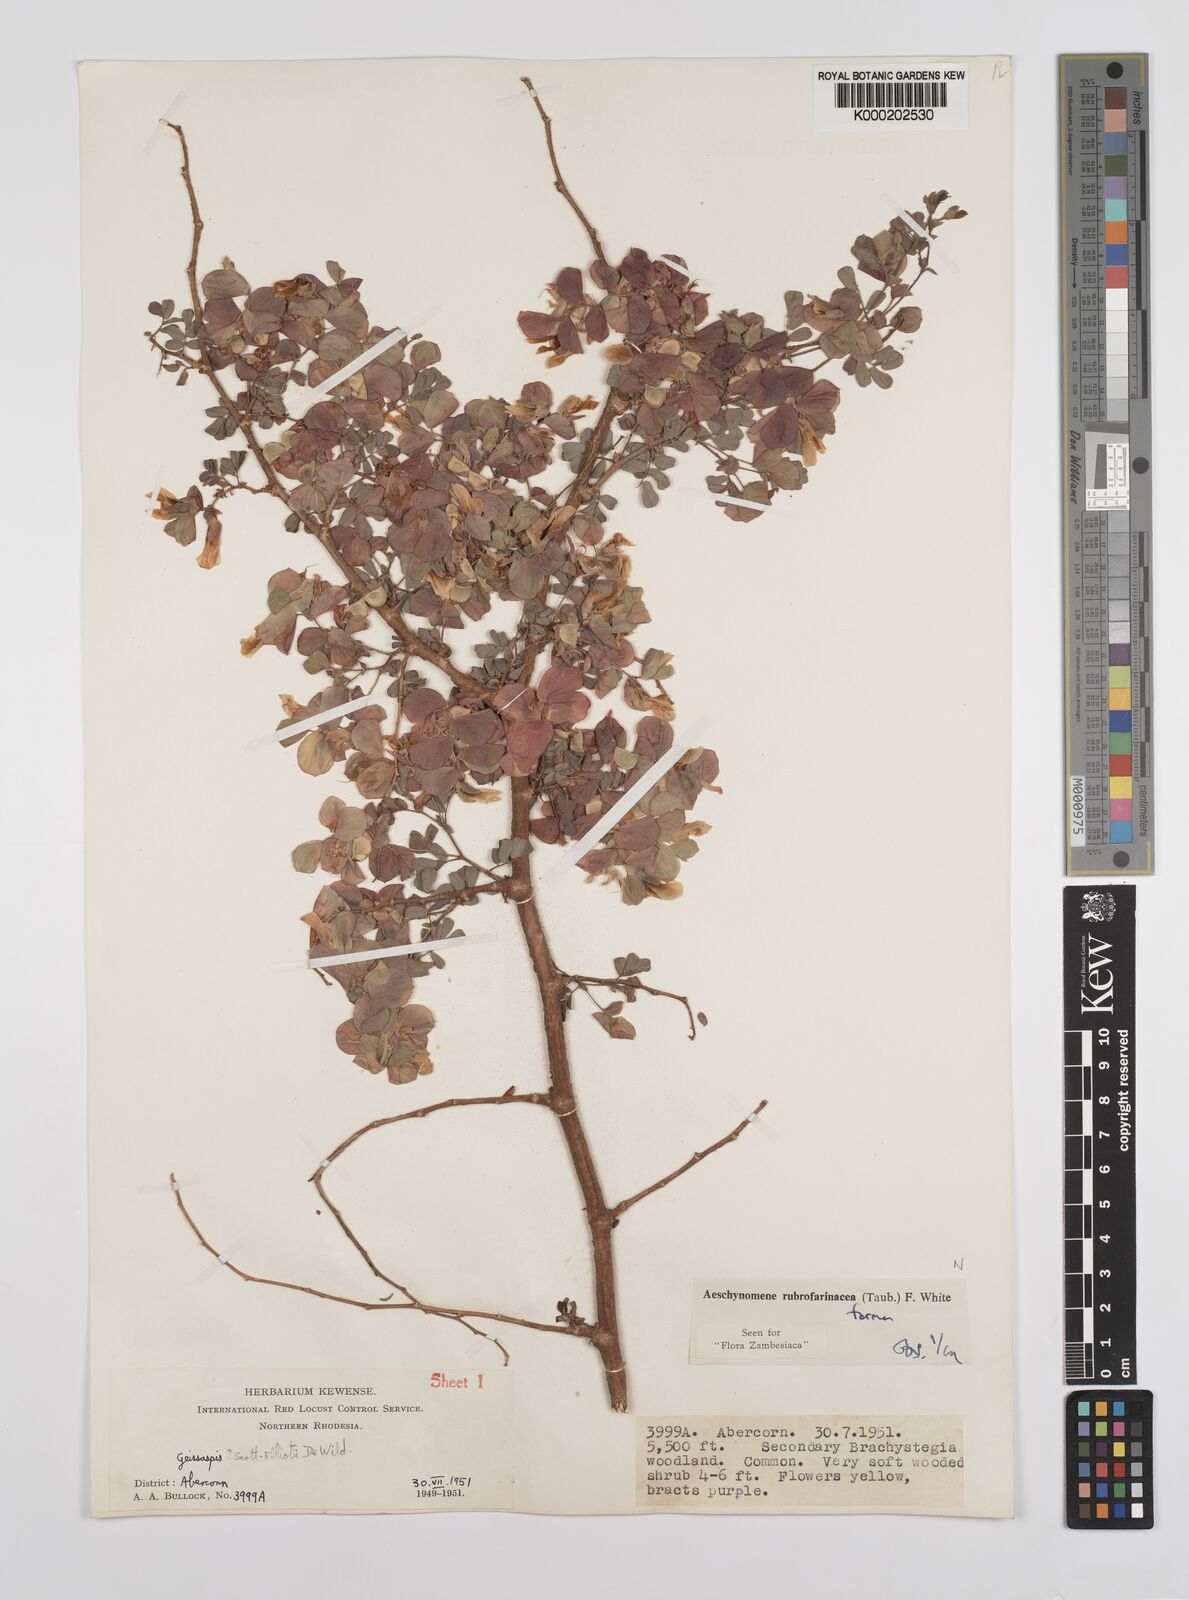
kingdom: Plantae
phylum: Tracheophyta
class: Magnoliopsida
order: Fabales
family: Fabaceae
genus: Aeschynomene
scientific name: Aeschynomene rubrofarinacea
